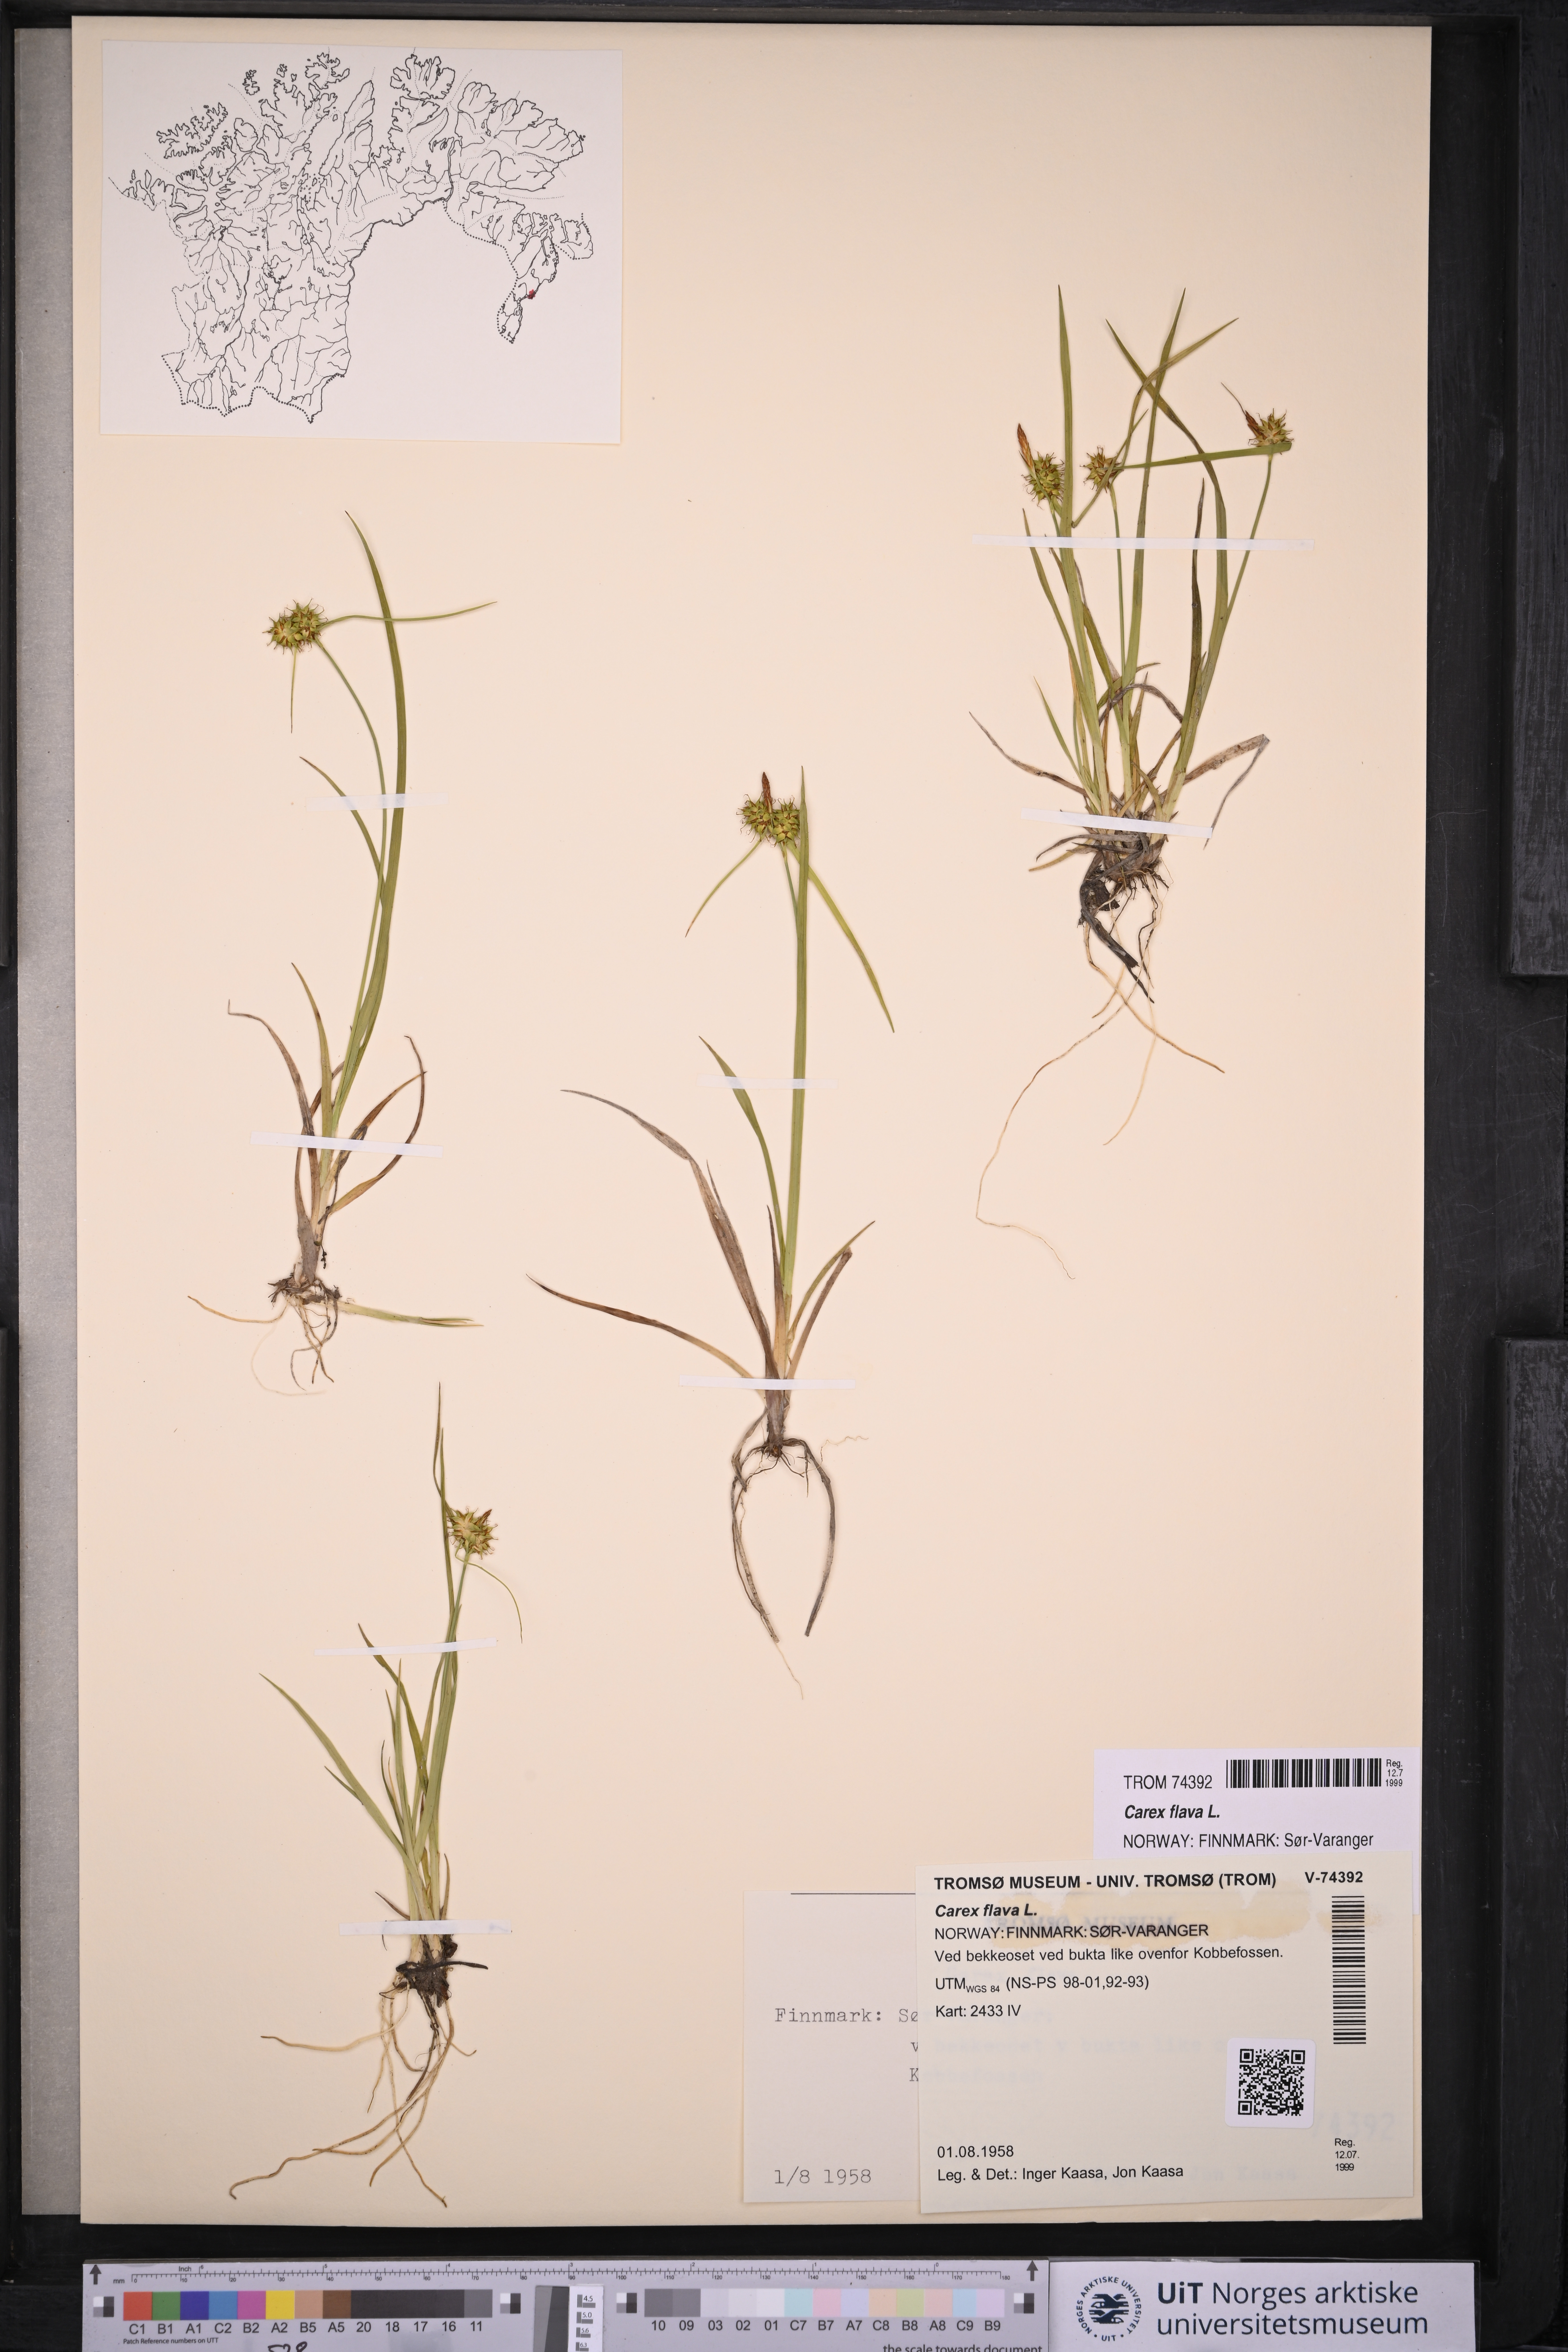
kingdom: Plantae
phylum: Tracheophyta
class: Liliopsida
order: Poales
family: Cyperaceae
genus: Carex
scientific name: Carex flava
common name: Large yellow-sedge
